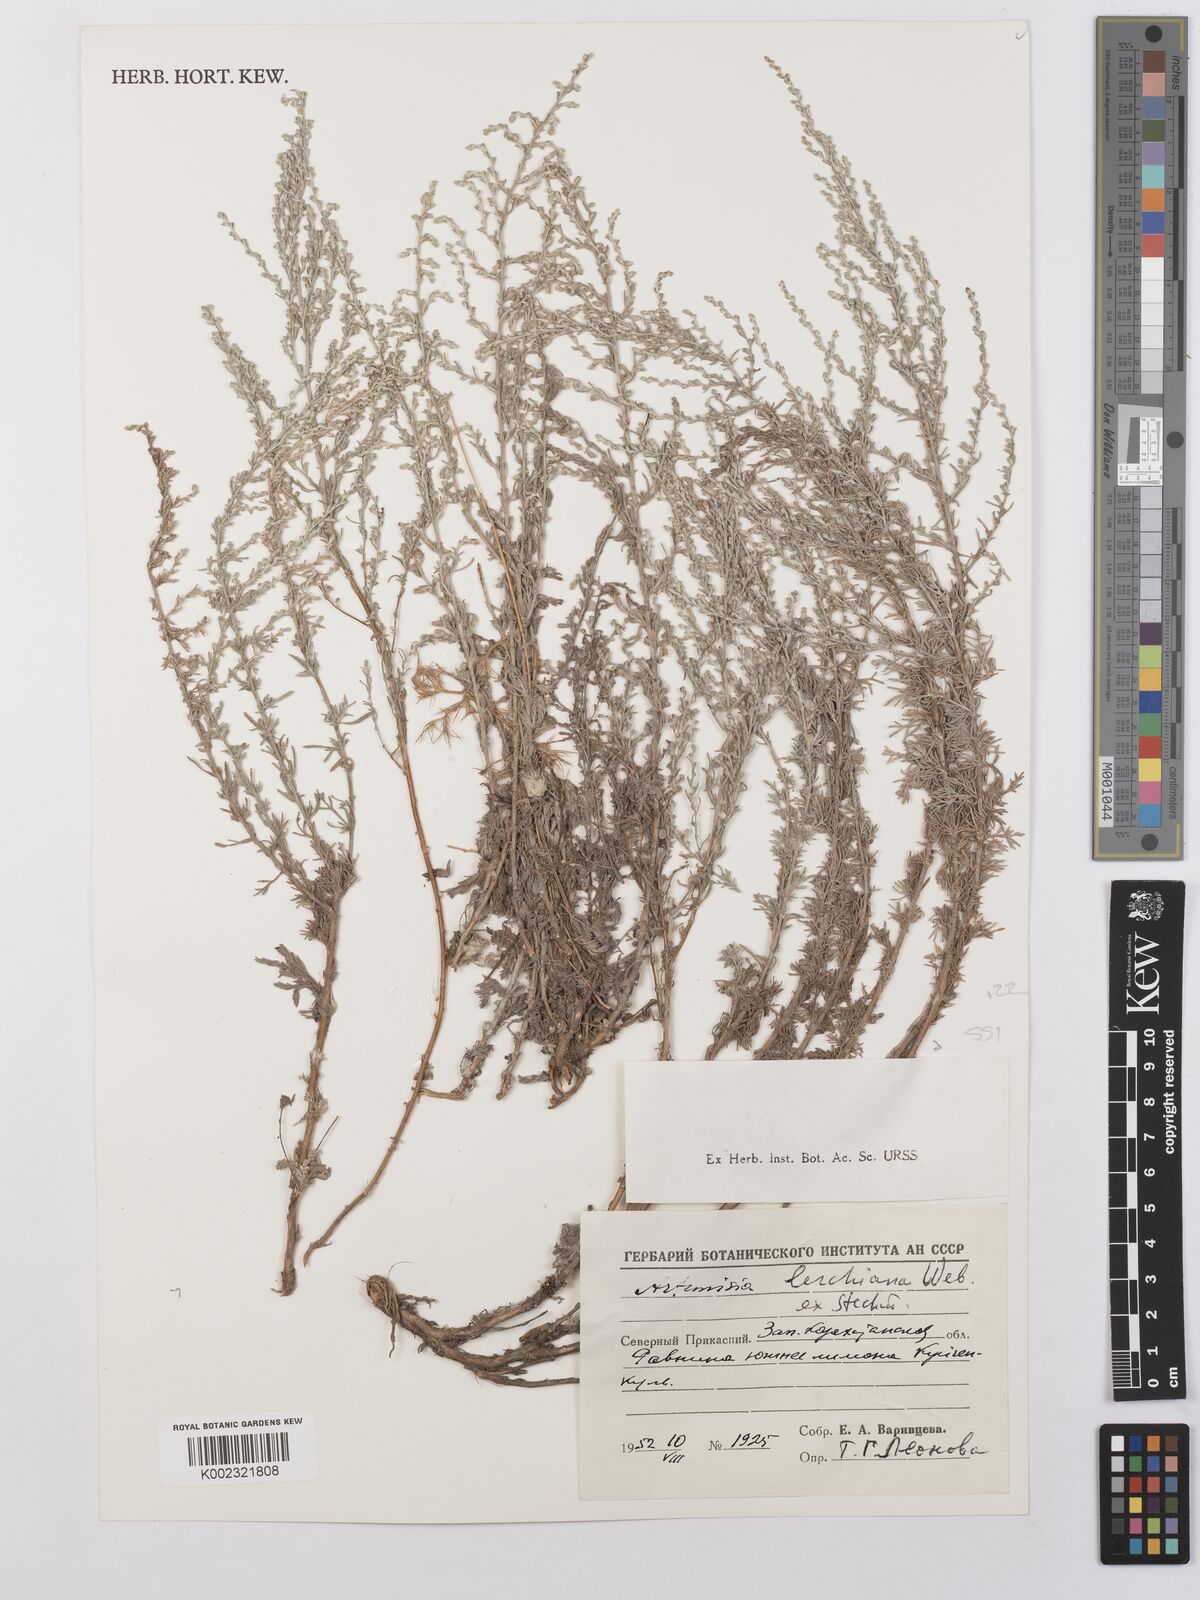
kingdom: Plantae
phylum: Tracheophyta
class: Magnoliopsida
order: Asterales
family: Asteraceae
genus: Artemisia
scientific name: Artemisia lercheana
